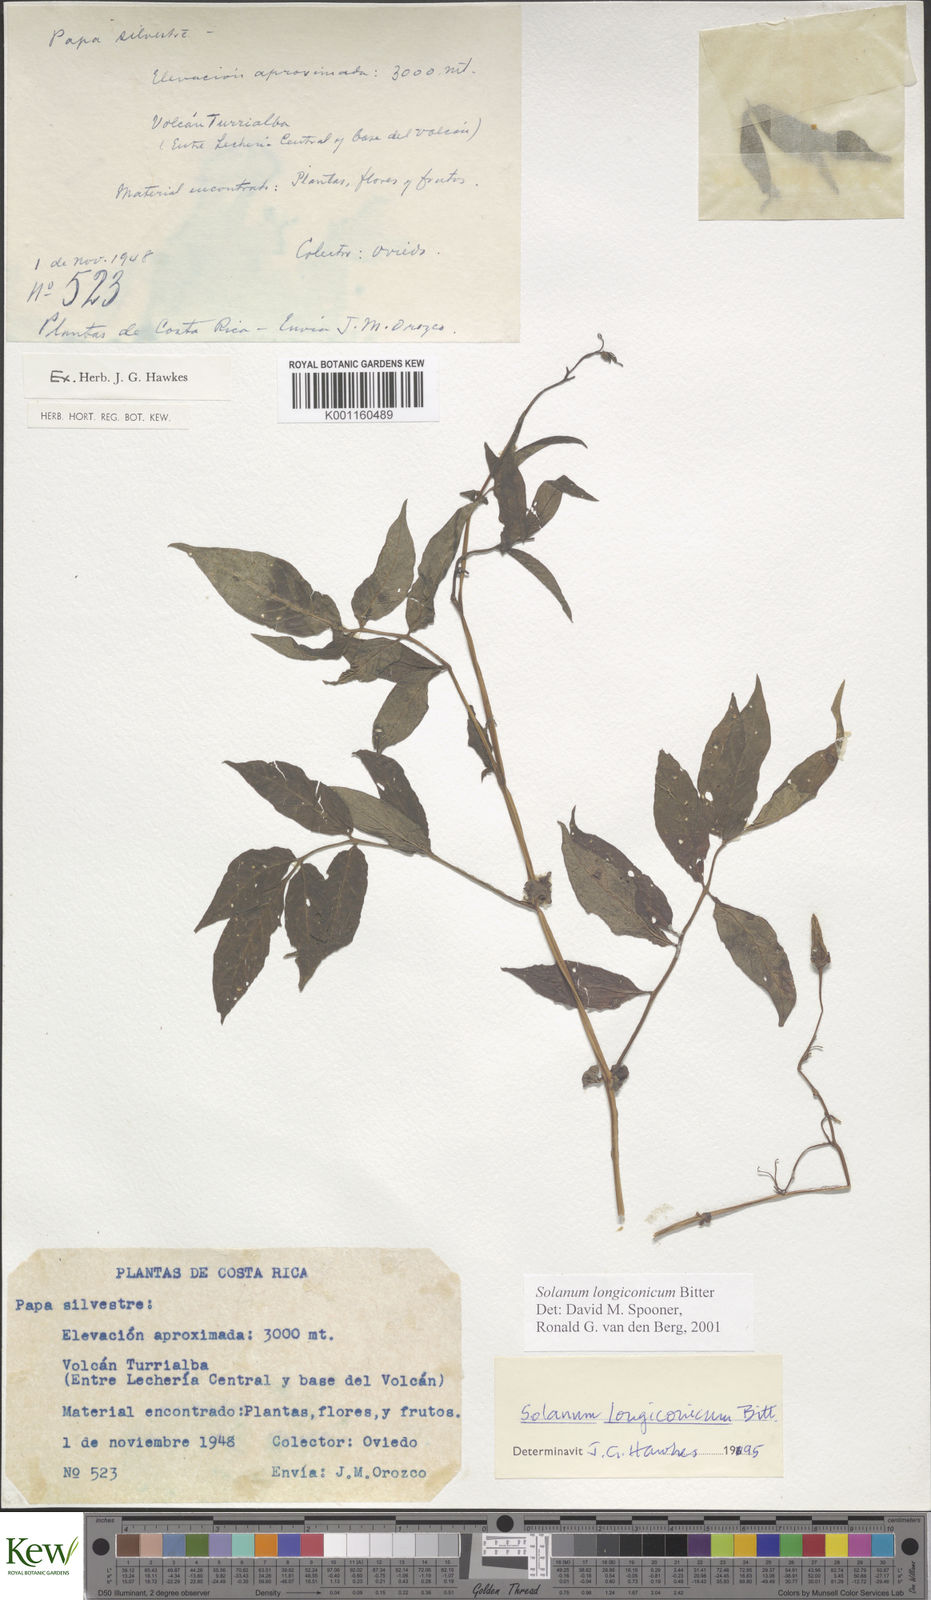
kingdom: Plantae
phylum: Tracheophyta
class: Magnoliopsida
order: Solanales
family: Solanaceae
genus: Solanum
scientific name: Solanum longiconicum
